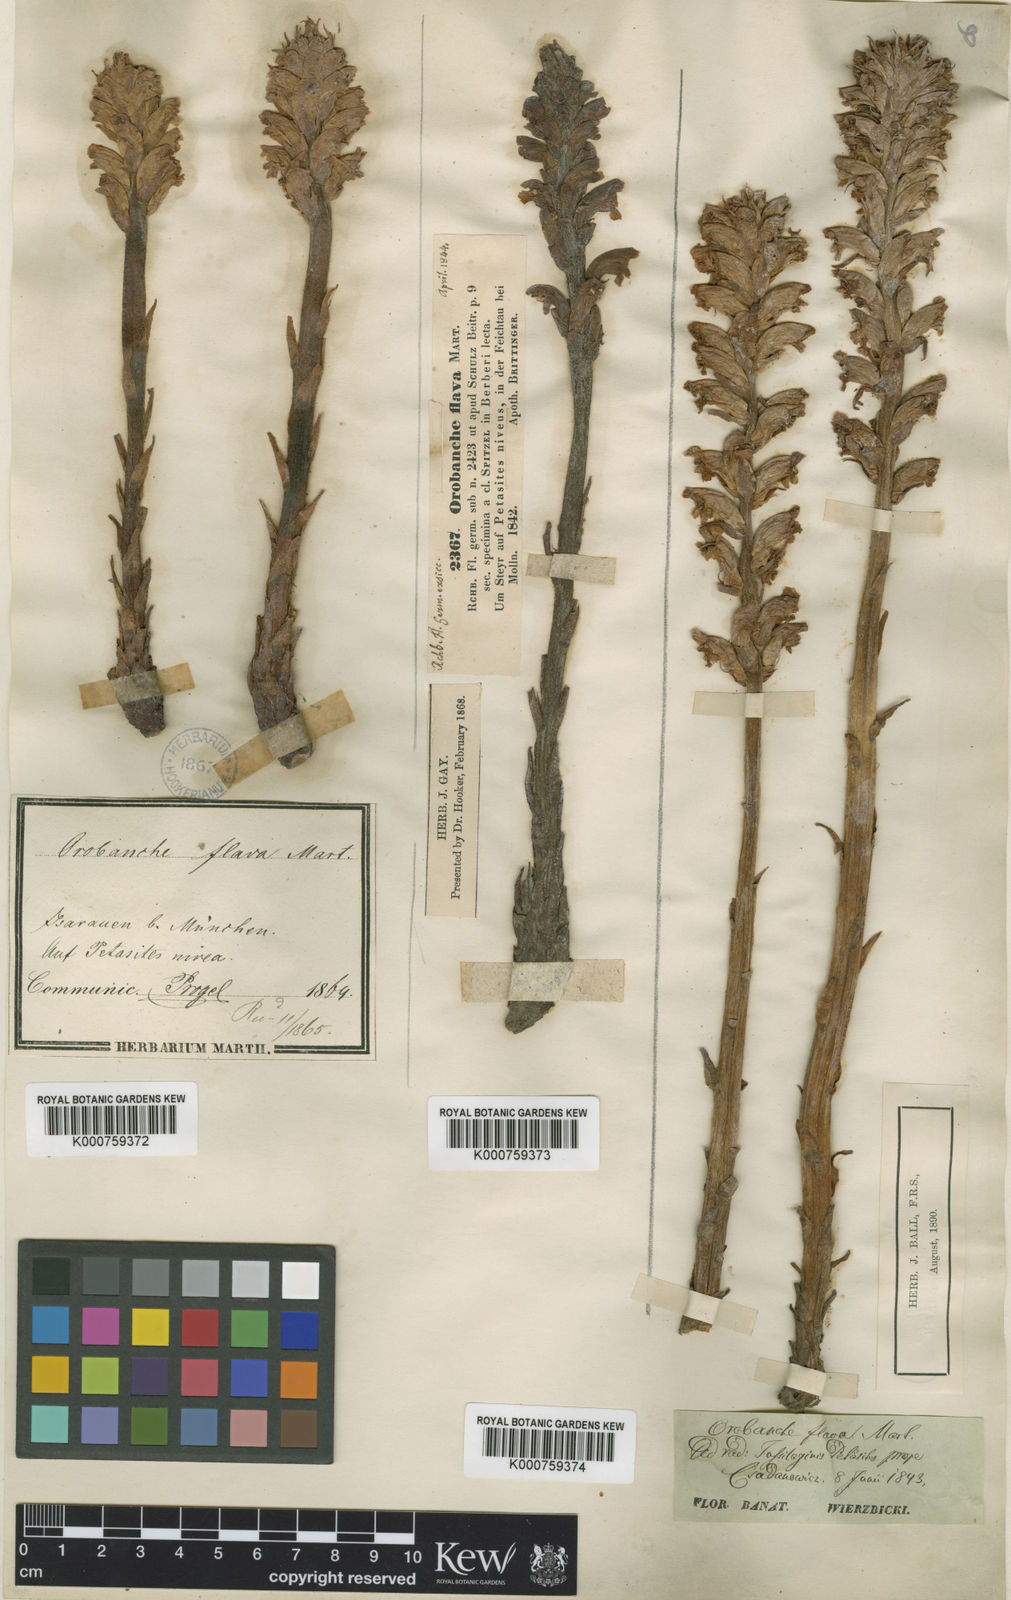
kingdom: Plantae
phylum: Tracheophyta
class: Magnoliopsida
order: Lamiales
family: Orobanchaceae
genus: Orobanche
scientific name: Orobanche
